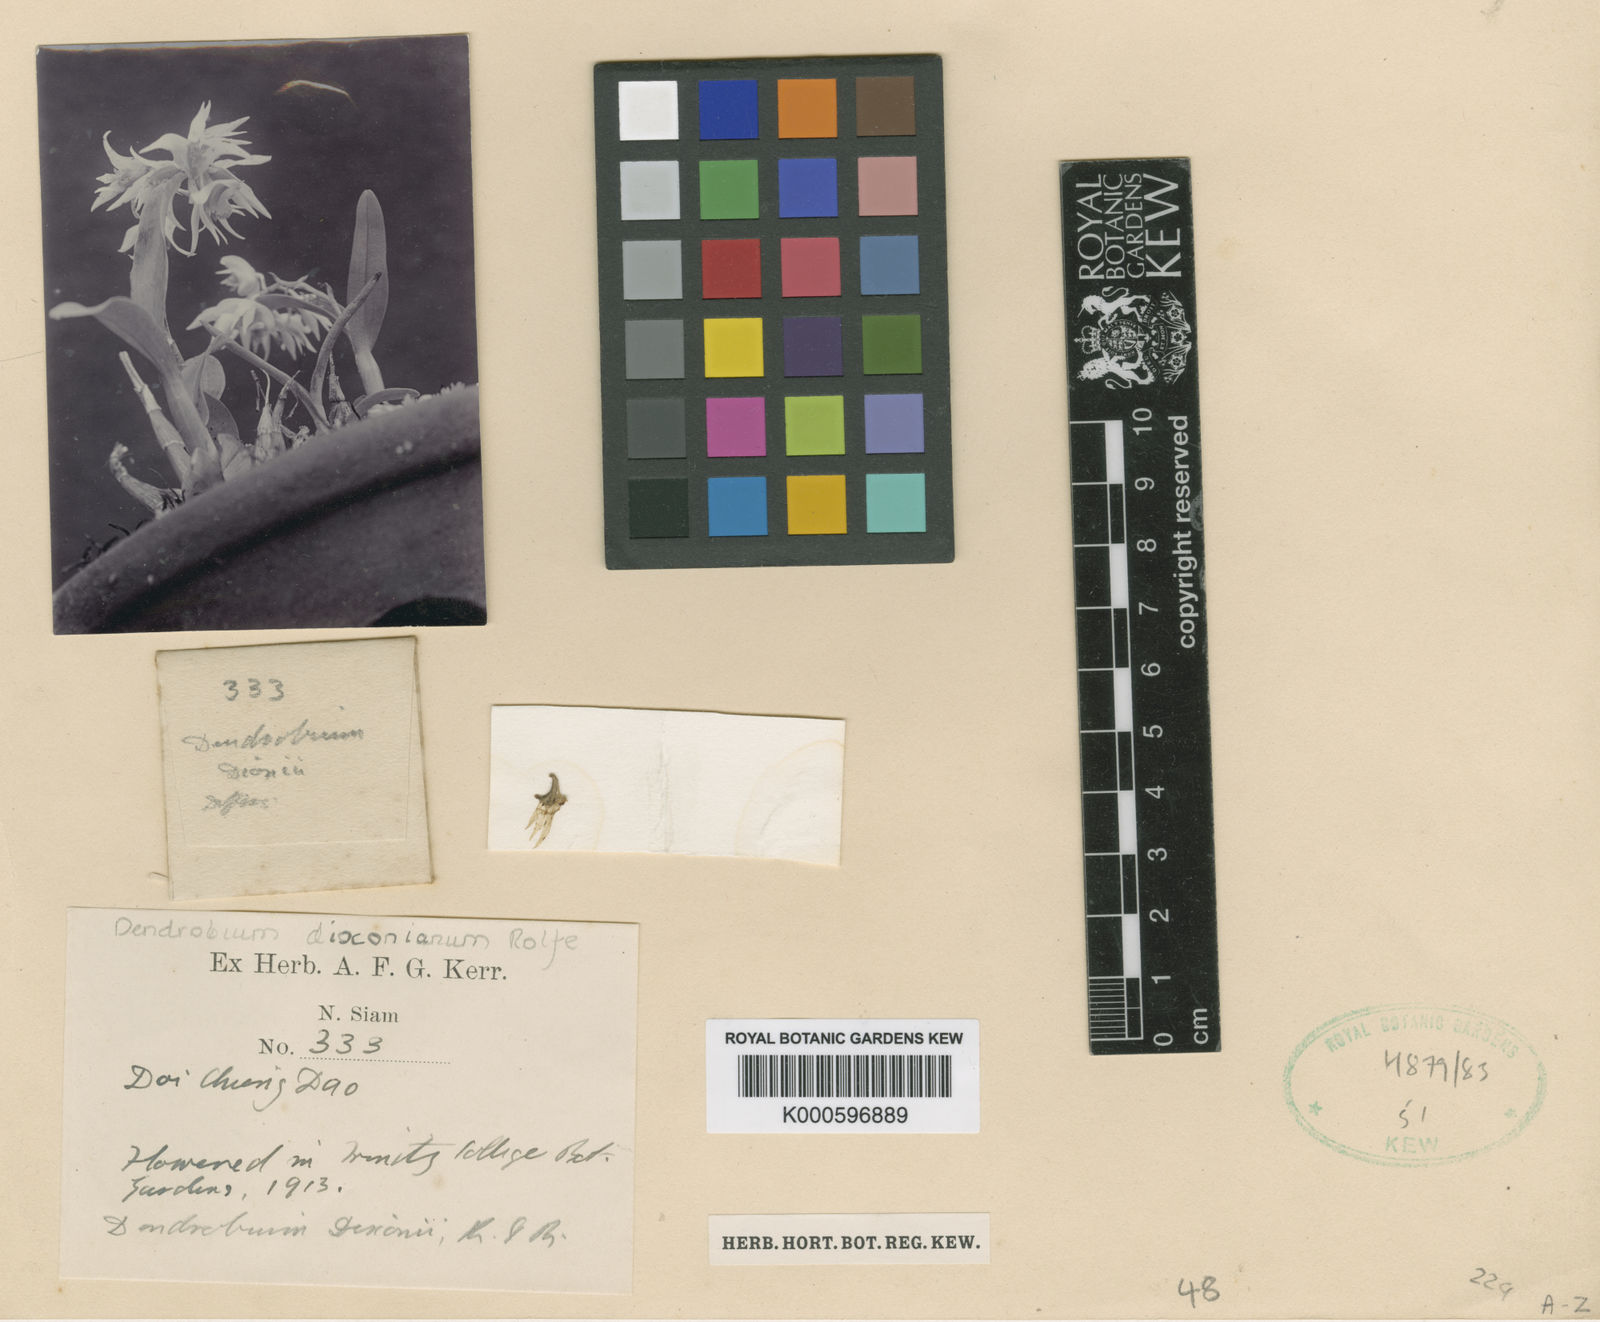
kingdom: Plantae
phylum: Tracheophyta
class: Liliopsida
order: Asparagales
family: Orchidaceae
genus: Dendrobium
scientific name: Dendrobium dixonianum
